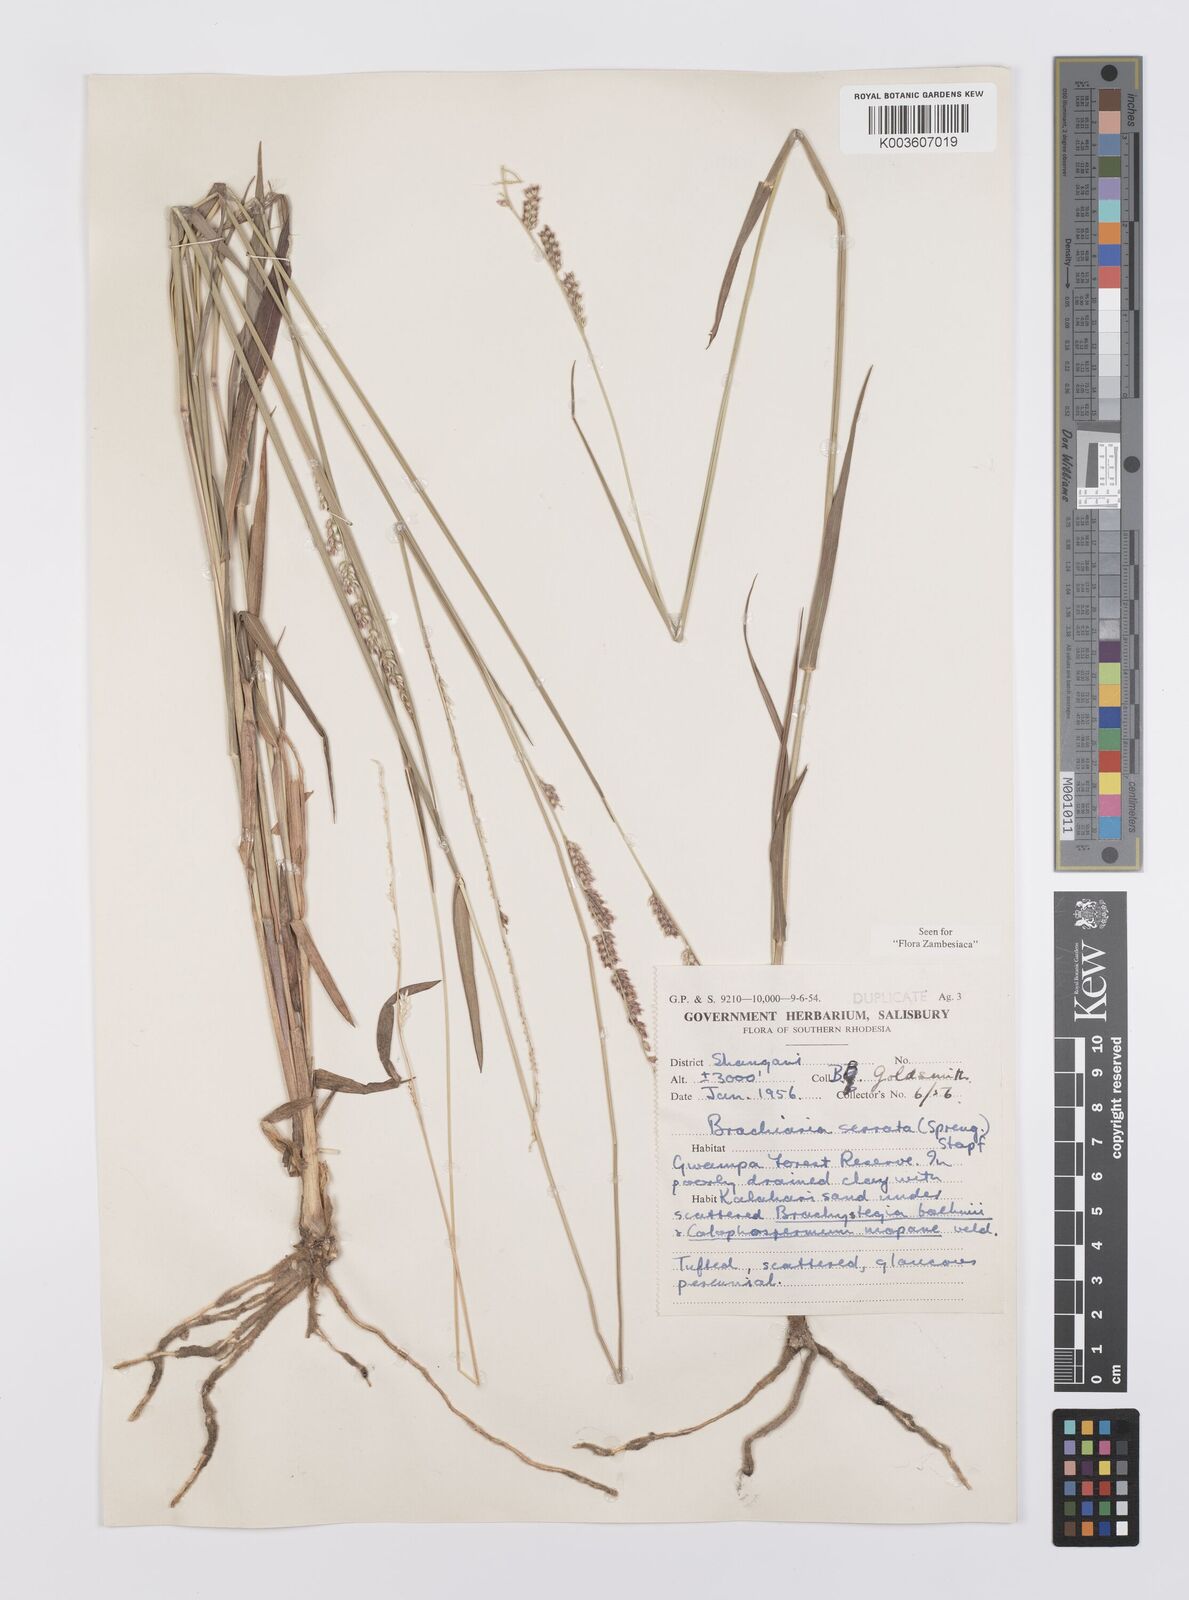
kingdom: Plantae
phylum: Tracheophyta
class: Liliopsida
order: Poales
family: Poaceae
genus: Urochloa
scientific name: Urochloa serrata
